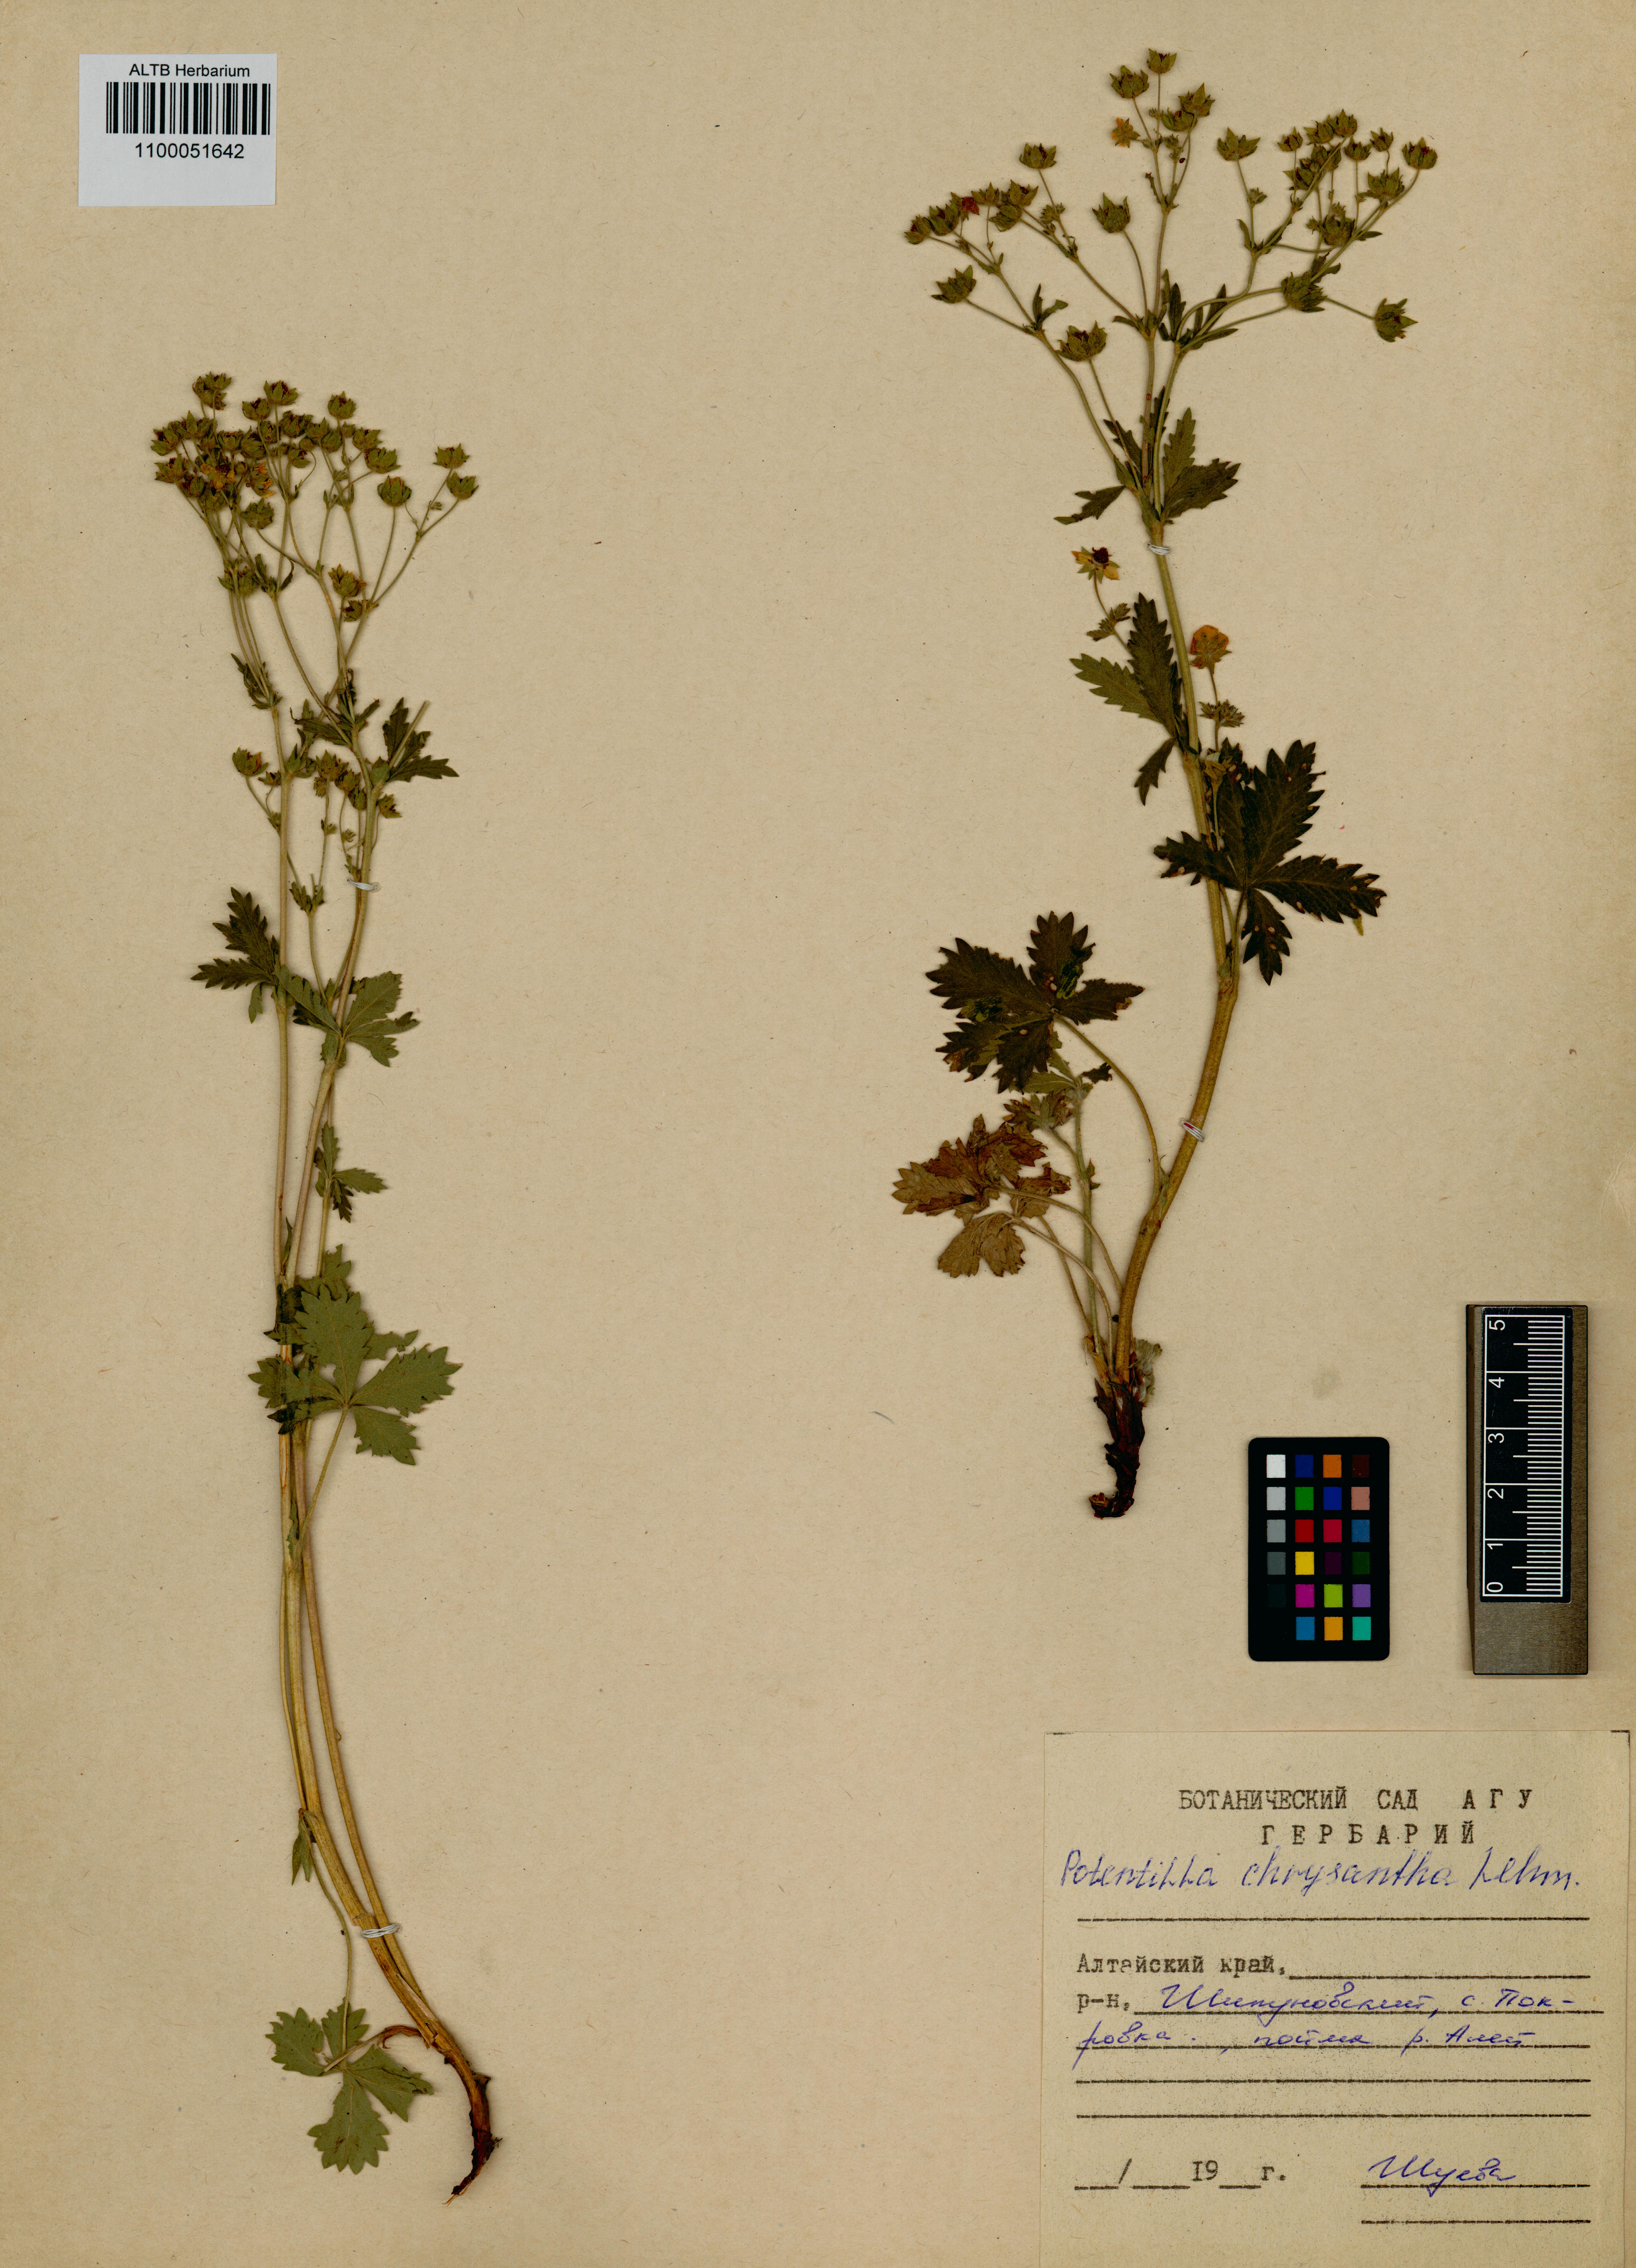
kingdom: Plantae
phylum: Tracheophyta
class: Magnoliopsida
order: Rosales
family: Rosaceae
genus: Potentilla
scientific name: Potentilla chrysantha
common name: Thuringian cinquefoil
